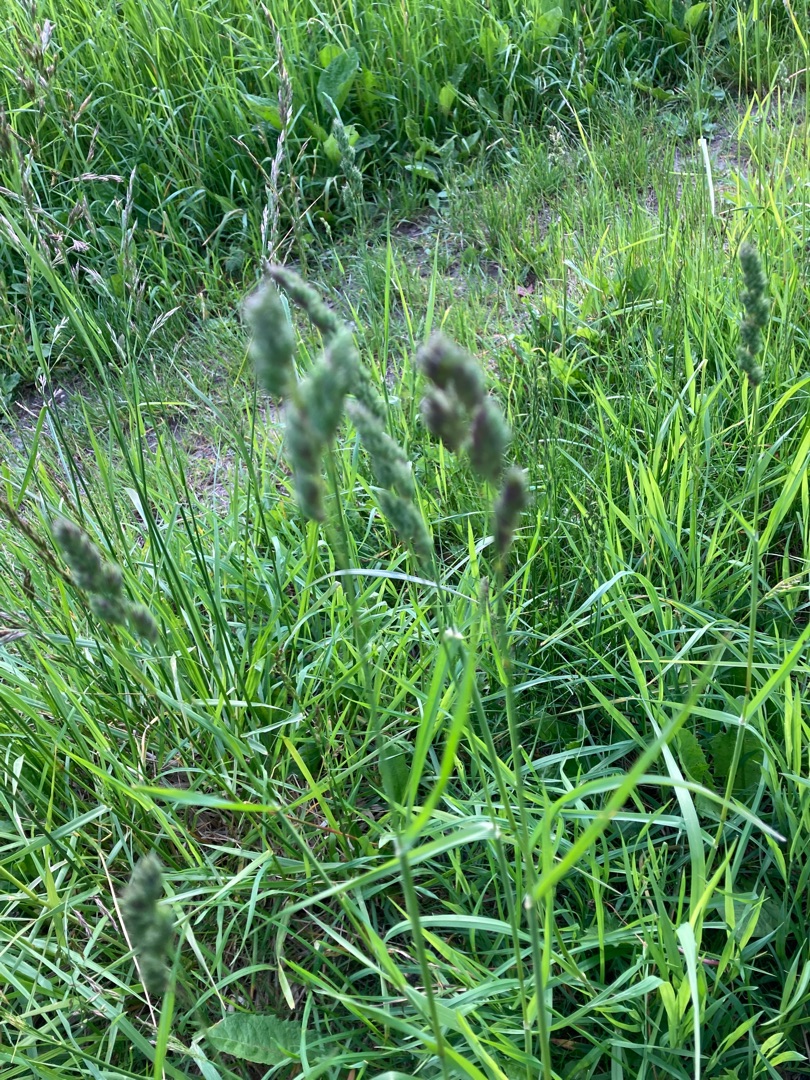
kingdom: Plantae
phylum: Tracheophyta
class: Liliopsida
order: Poales
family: Poaceae
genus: Dactylis
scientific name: Dactylis glomerata
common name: Almindelig hundegræs
